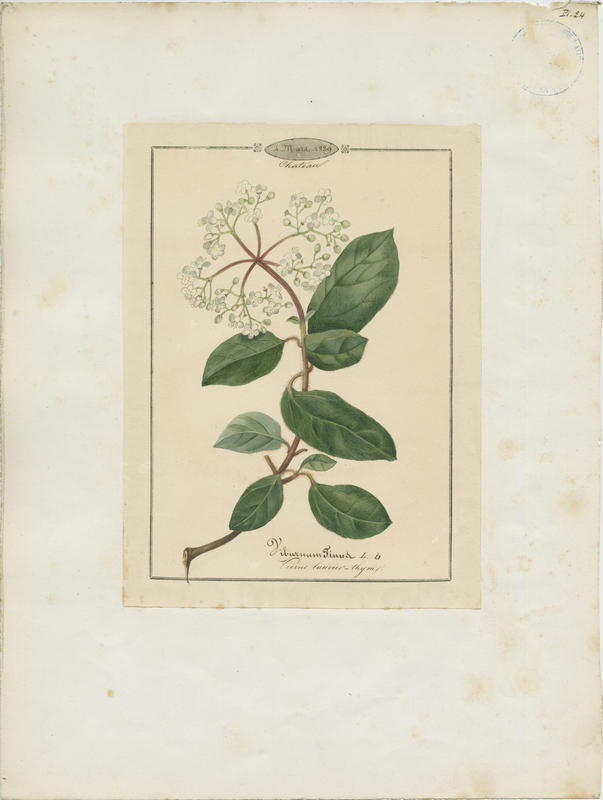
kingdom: Plantae
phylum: Tracheophyta
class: Magnoliopsida
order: Dipsacales
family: Viburnaceae
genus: Viburnum
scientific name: Viburnum tinus
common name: Laurustinus
